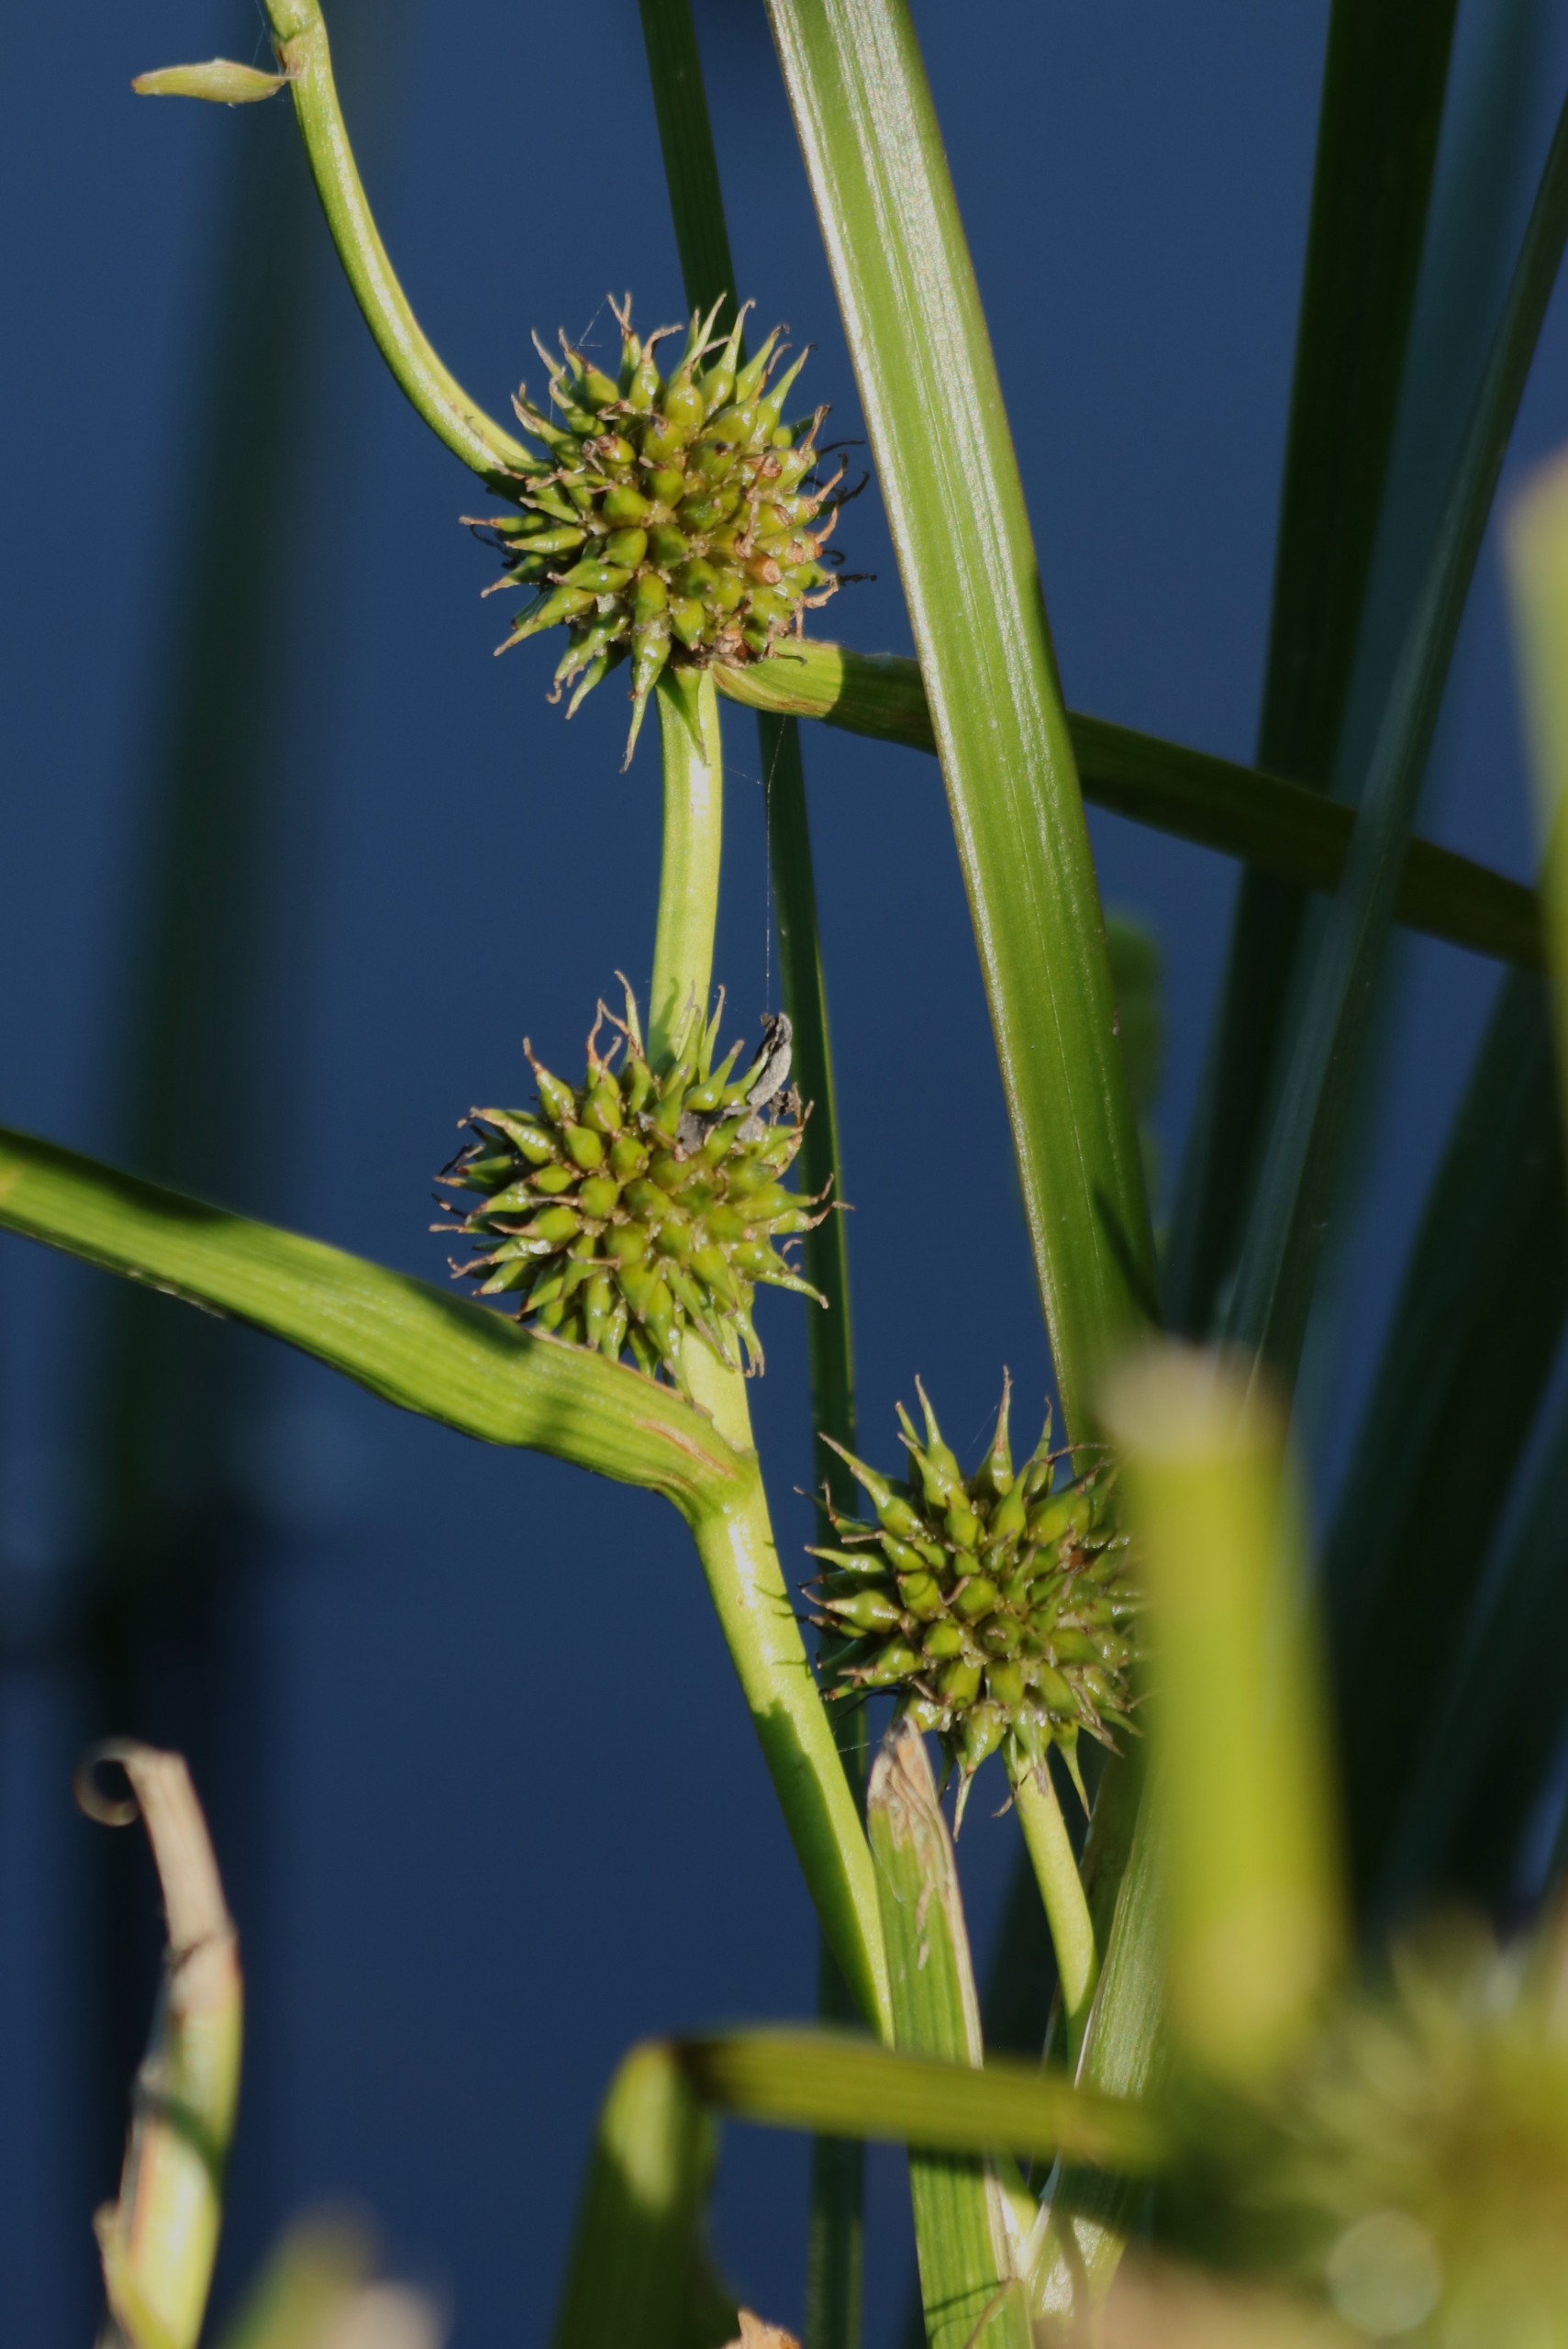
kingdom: Plantae
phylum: Tracheophyta
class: Liliopsida
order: Poales
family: Typhaceae
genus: Sparganium
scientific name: Sparganium erectum
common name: Grenet pindsvineknop
